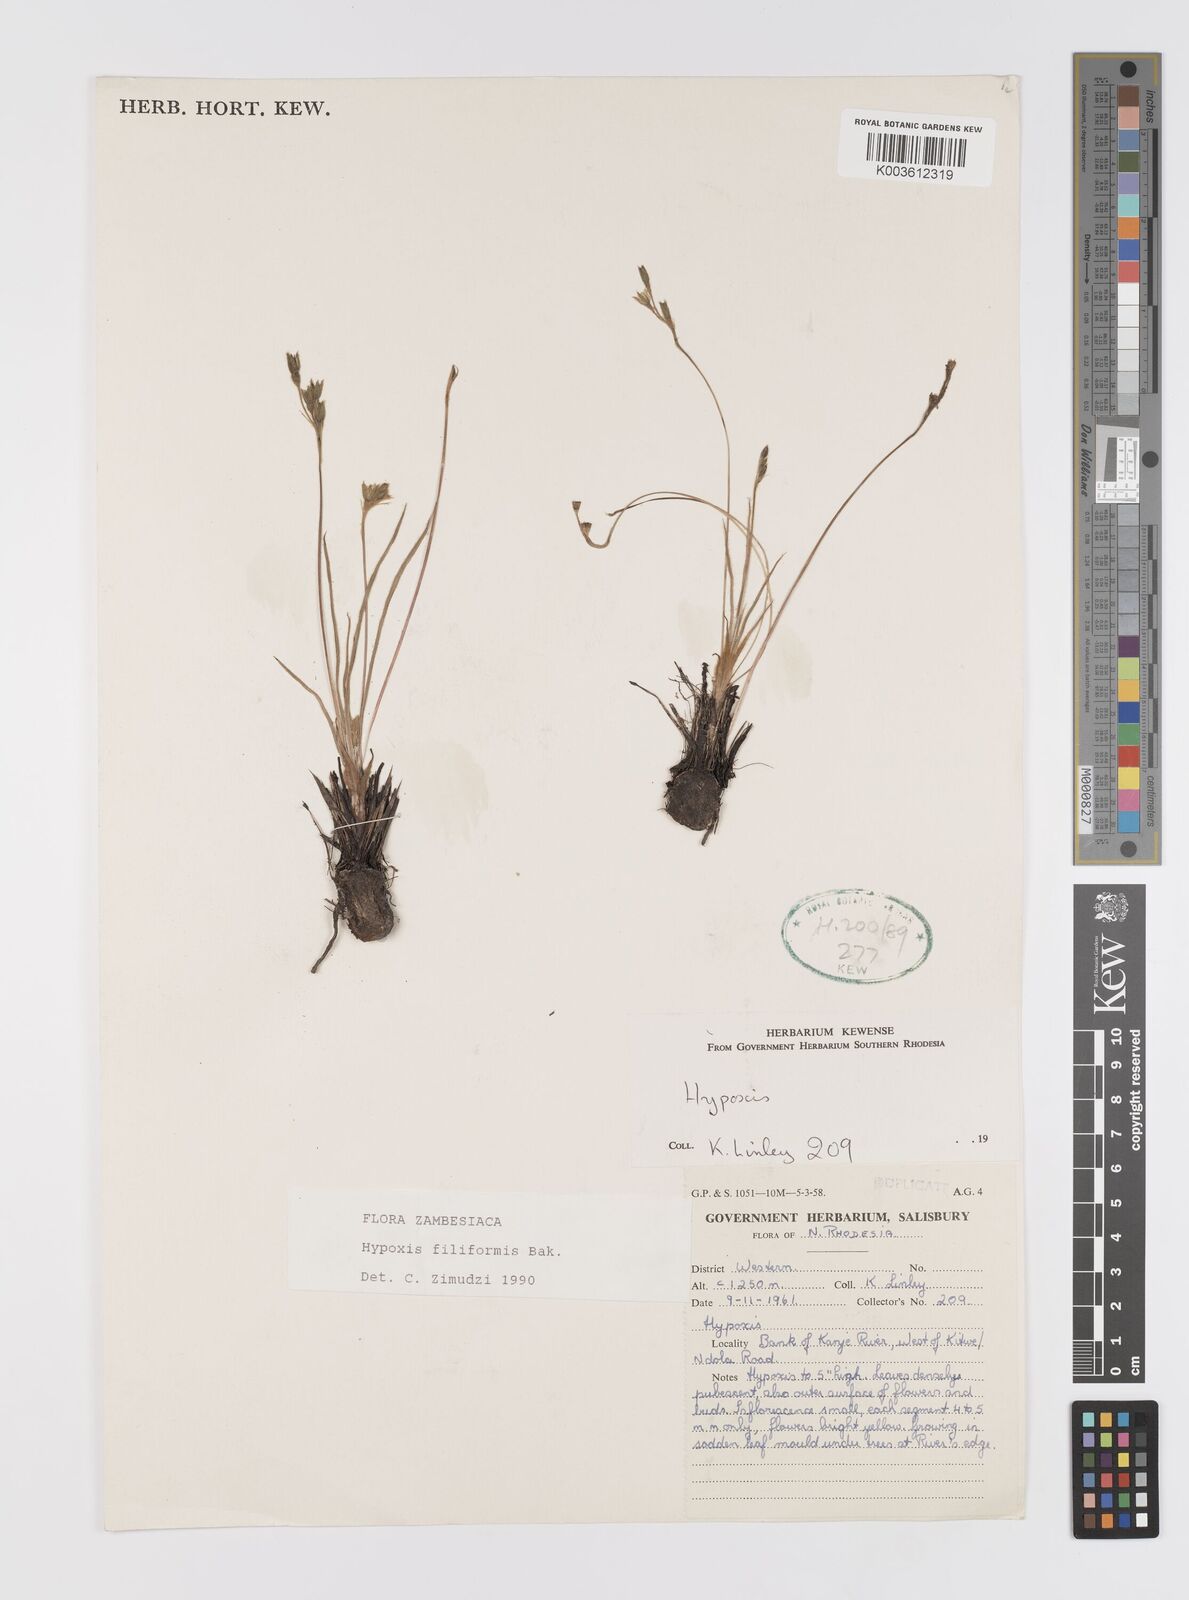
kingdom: Plantae
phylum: Tracheophyta
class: Liliopsida
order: Asparagales
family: Hypoxidaceae
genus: Hypoxis
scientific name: Hypoxis filiformis
